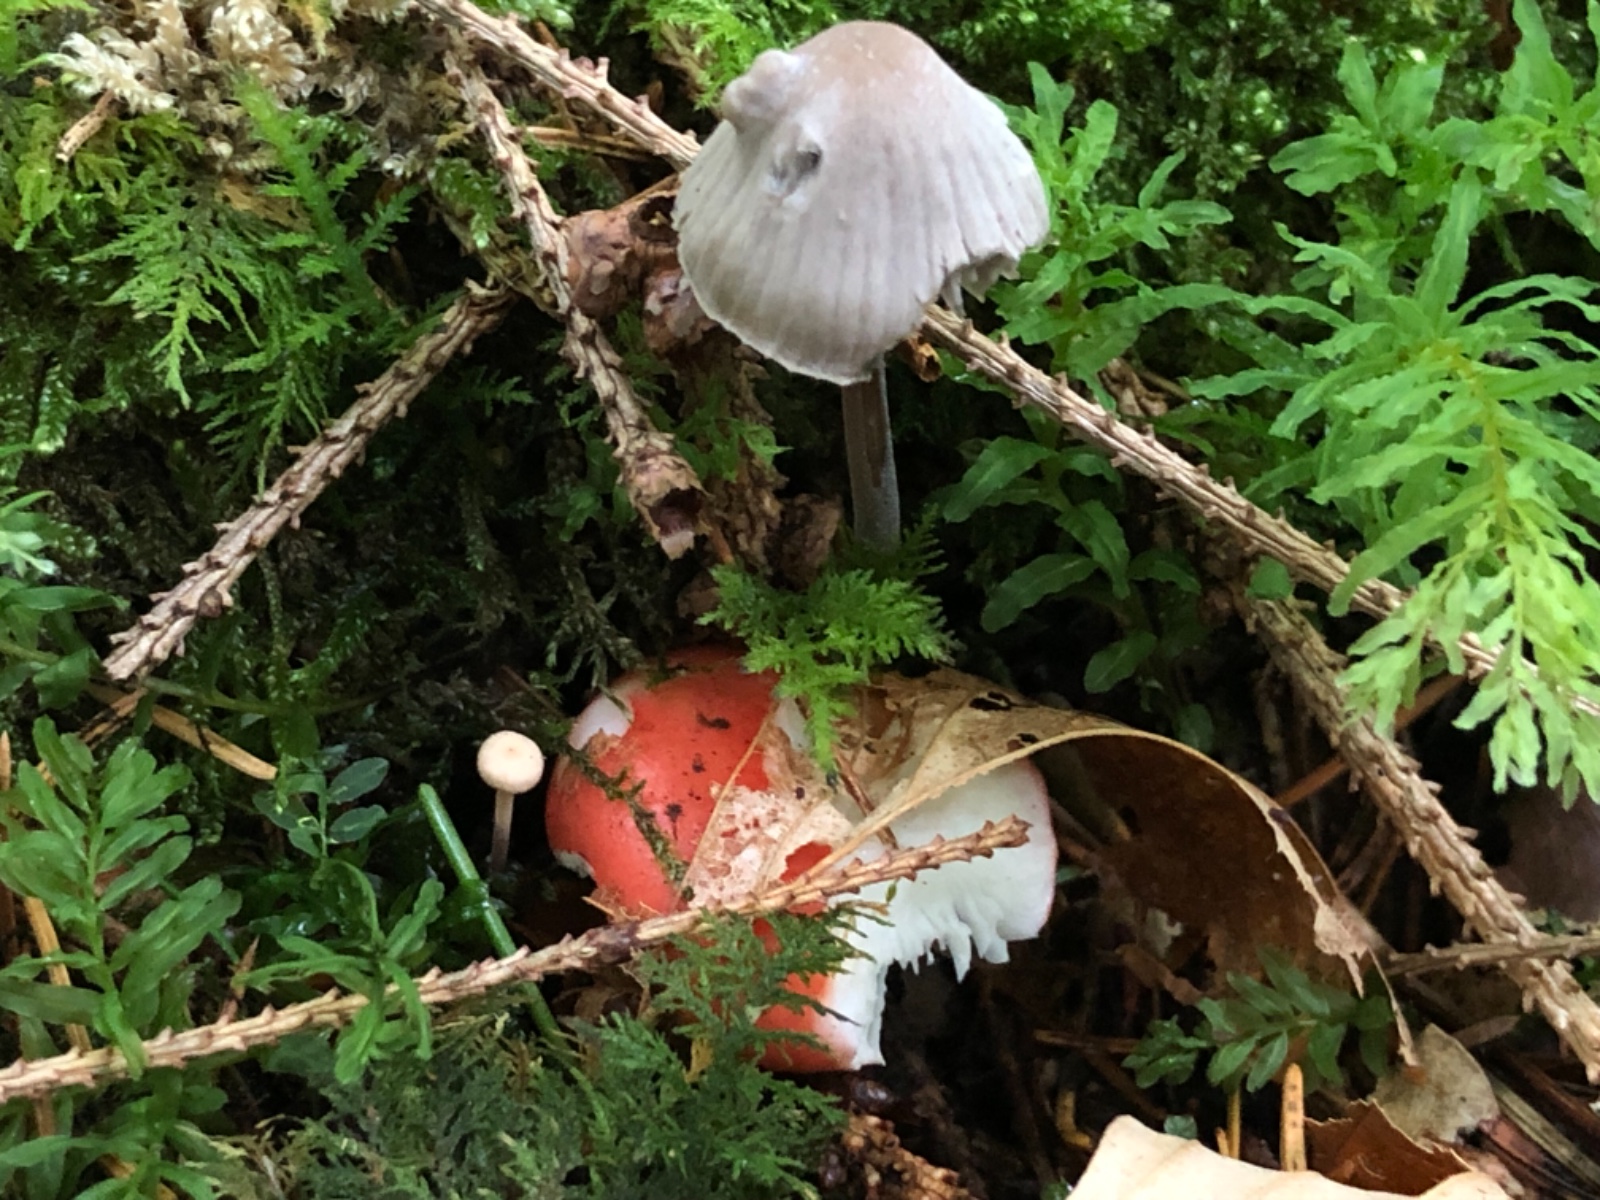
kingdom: Fungi
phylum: Basidiomycota
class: Agaricomycetes
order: Agaricales
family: Mycenaceae
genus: Mycena
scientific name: Mycena leptocephala
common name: klor-huesvamp
